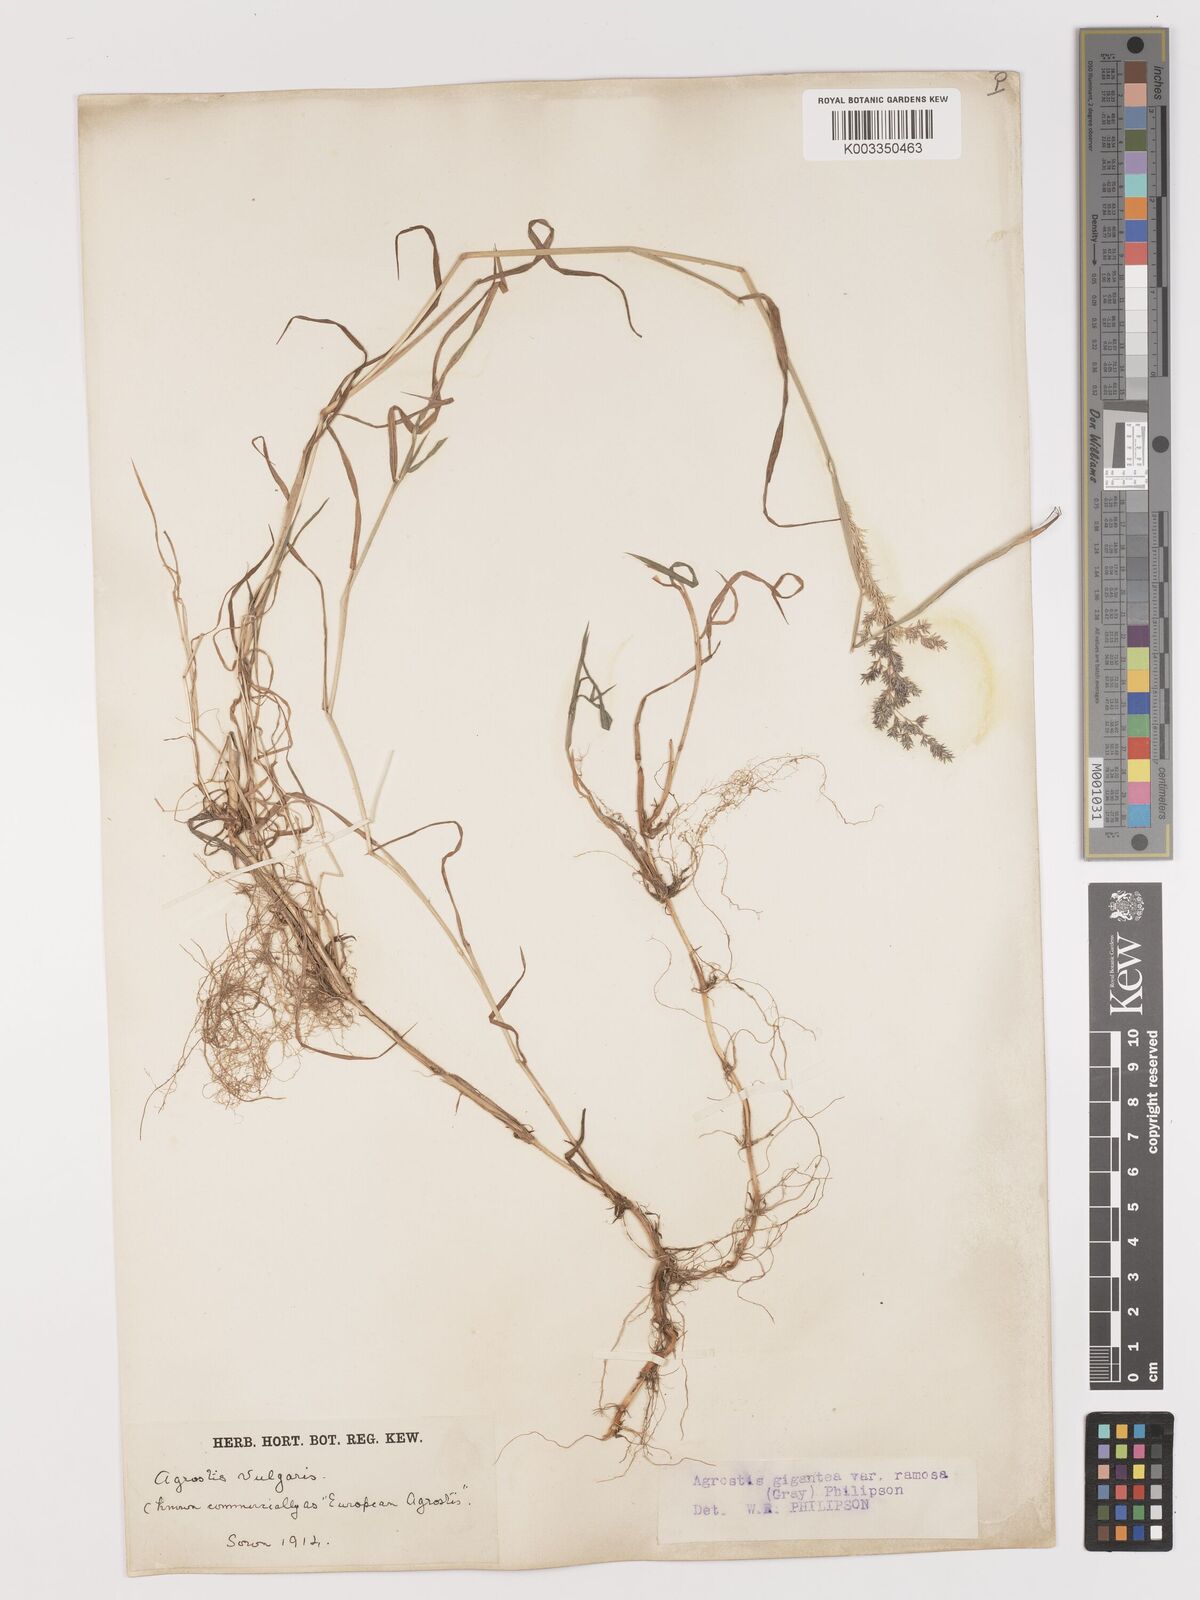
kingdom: Plantae
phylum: Tracheophyta
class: Liliopsida
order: Poales
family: Poaceae
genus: Agrostis
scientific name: Agrostis gigantea
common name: Black bent
